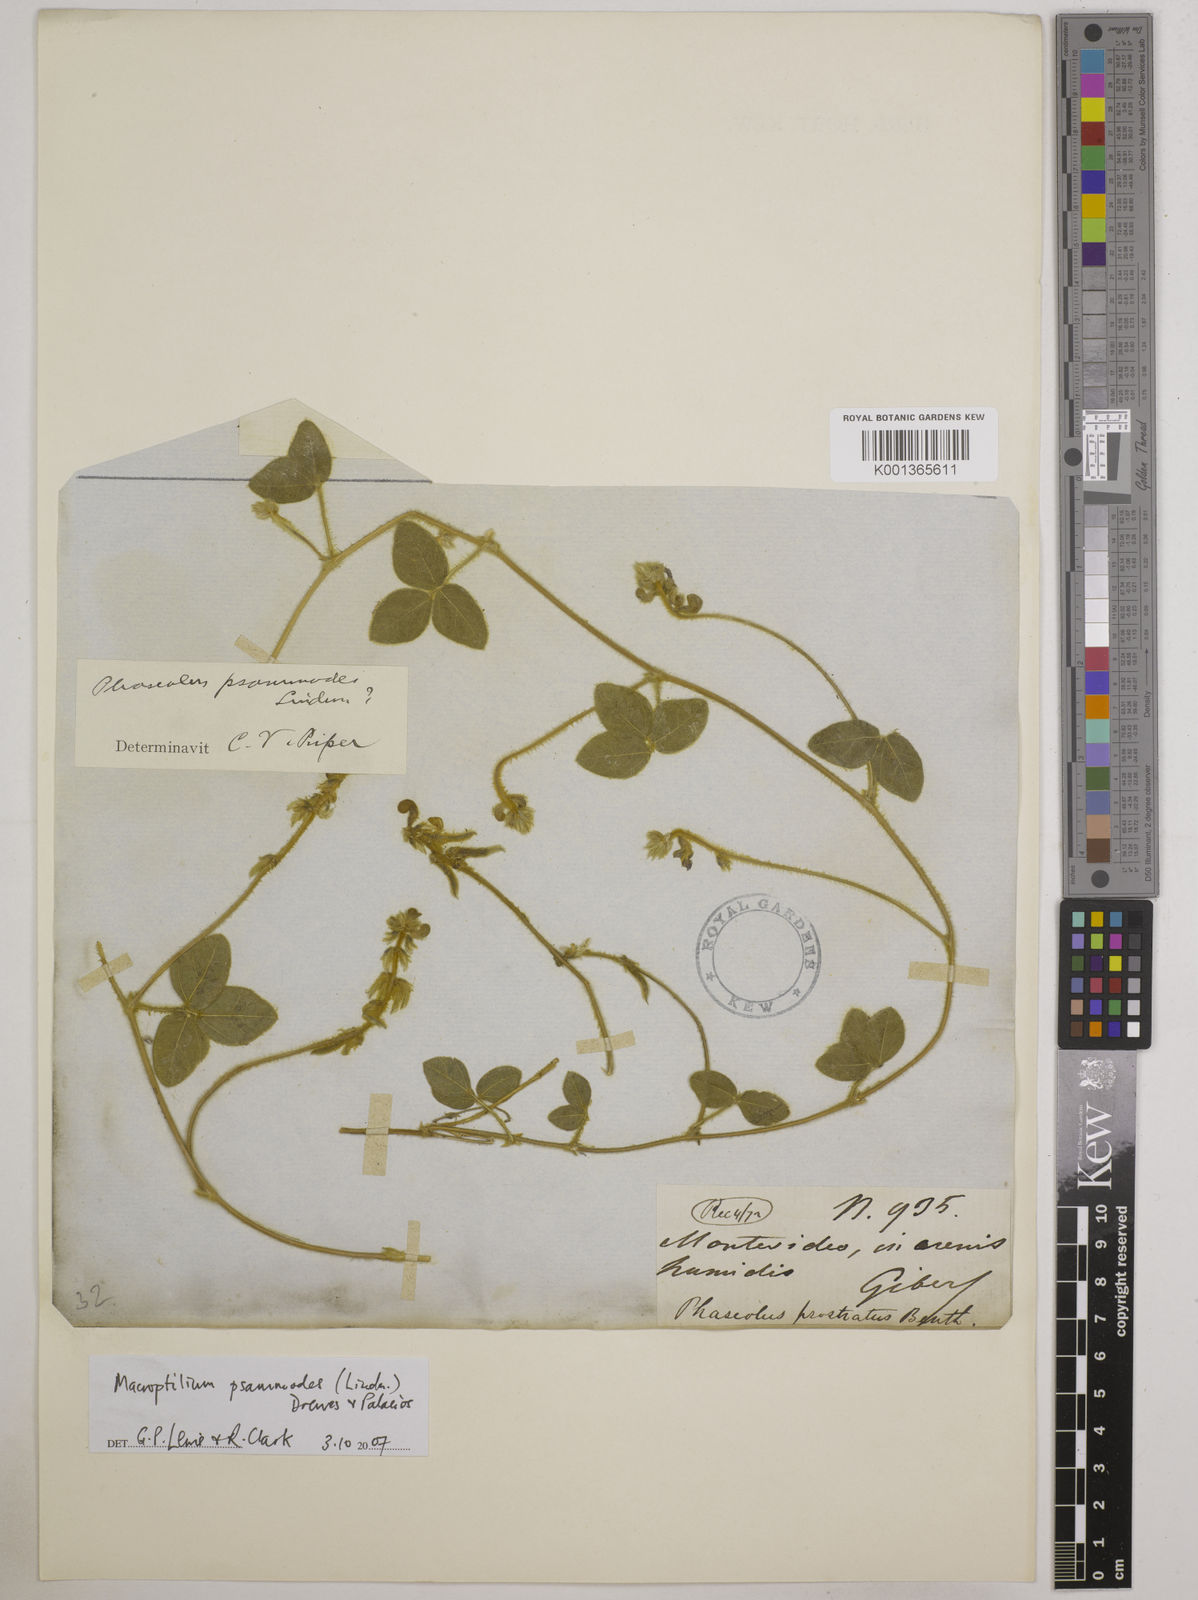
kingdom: Plantae
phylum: Tracheophyta
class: Magnoliopsida
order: Fabales
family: Fabaceae
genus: Macroptilium
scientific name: Macroptilium psammodes
